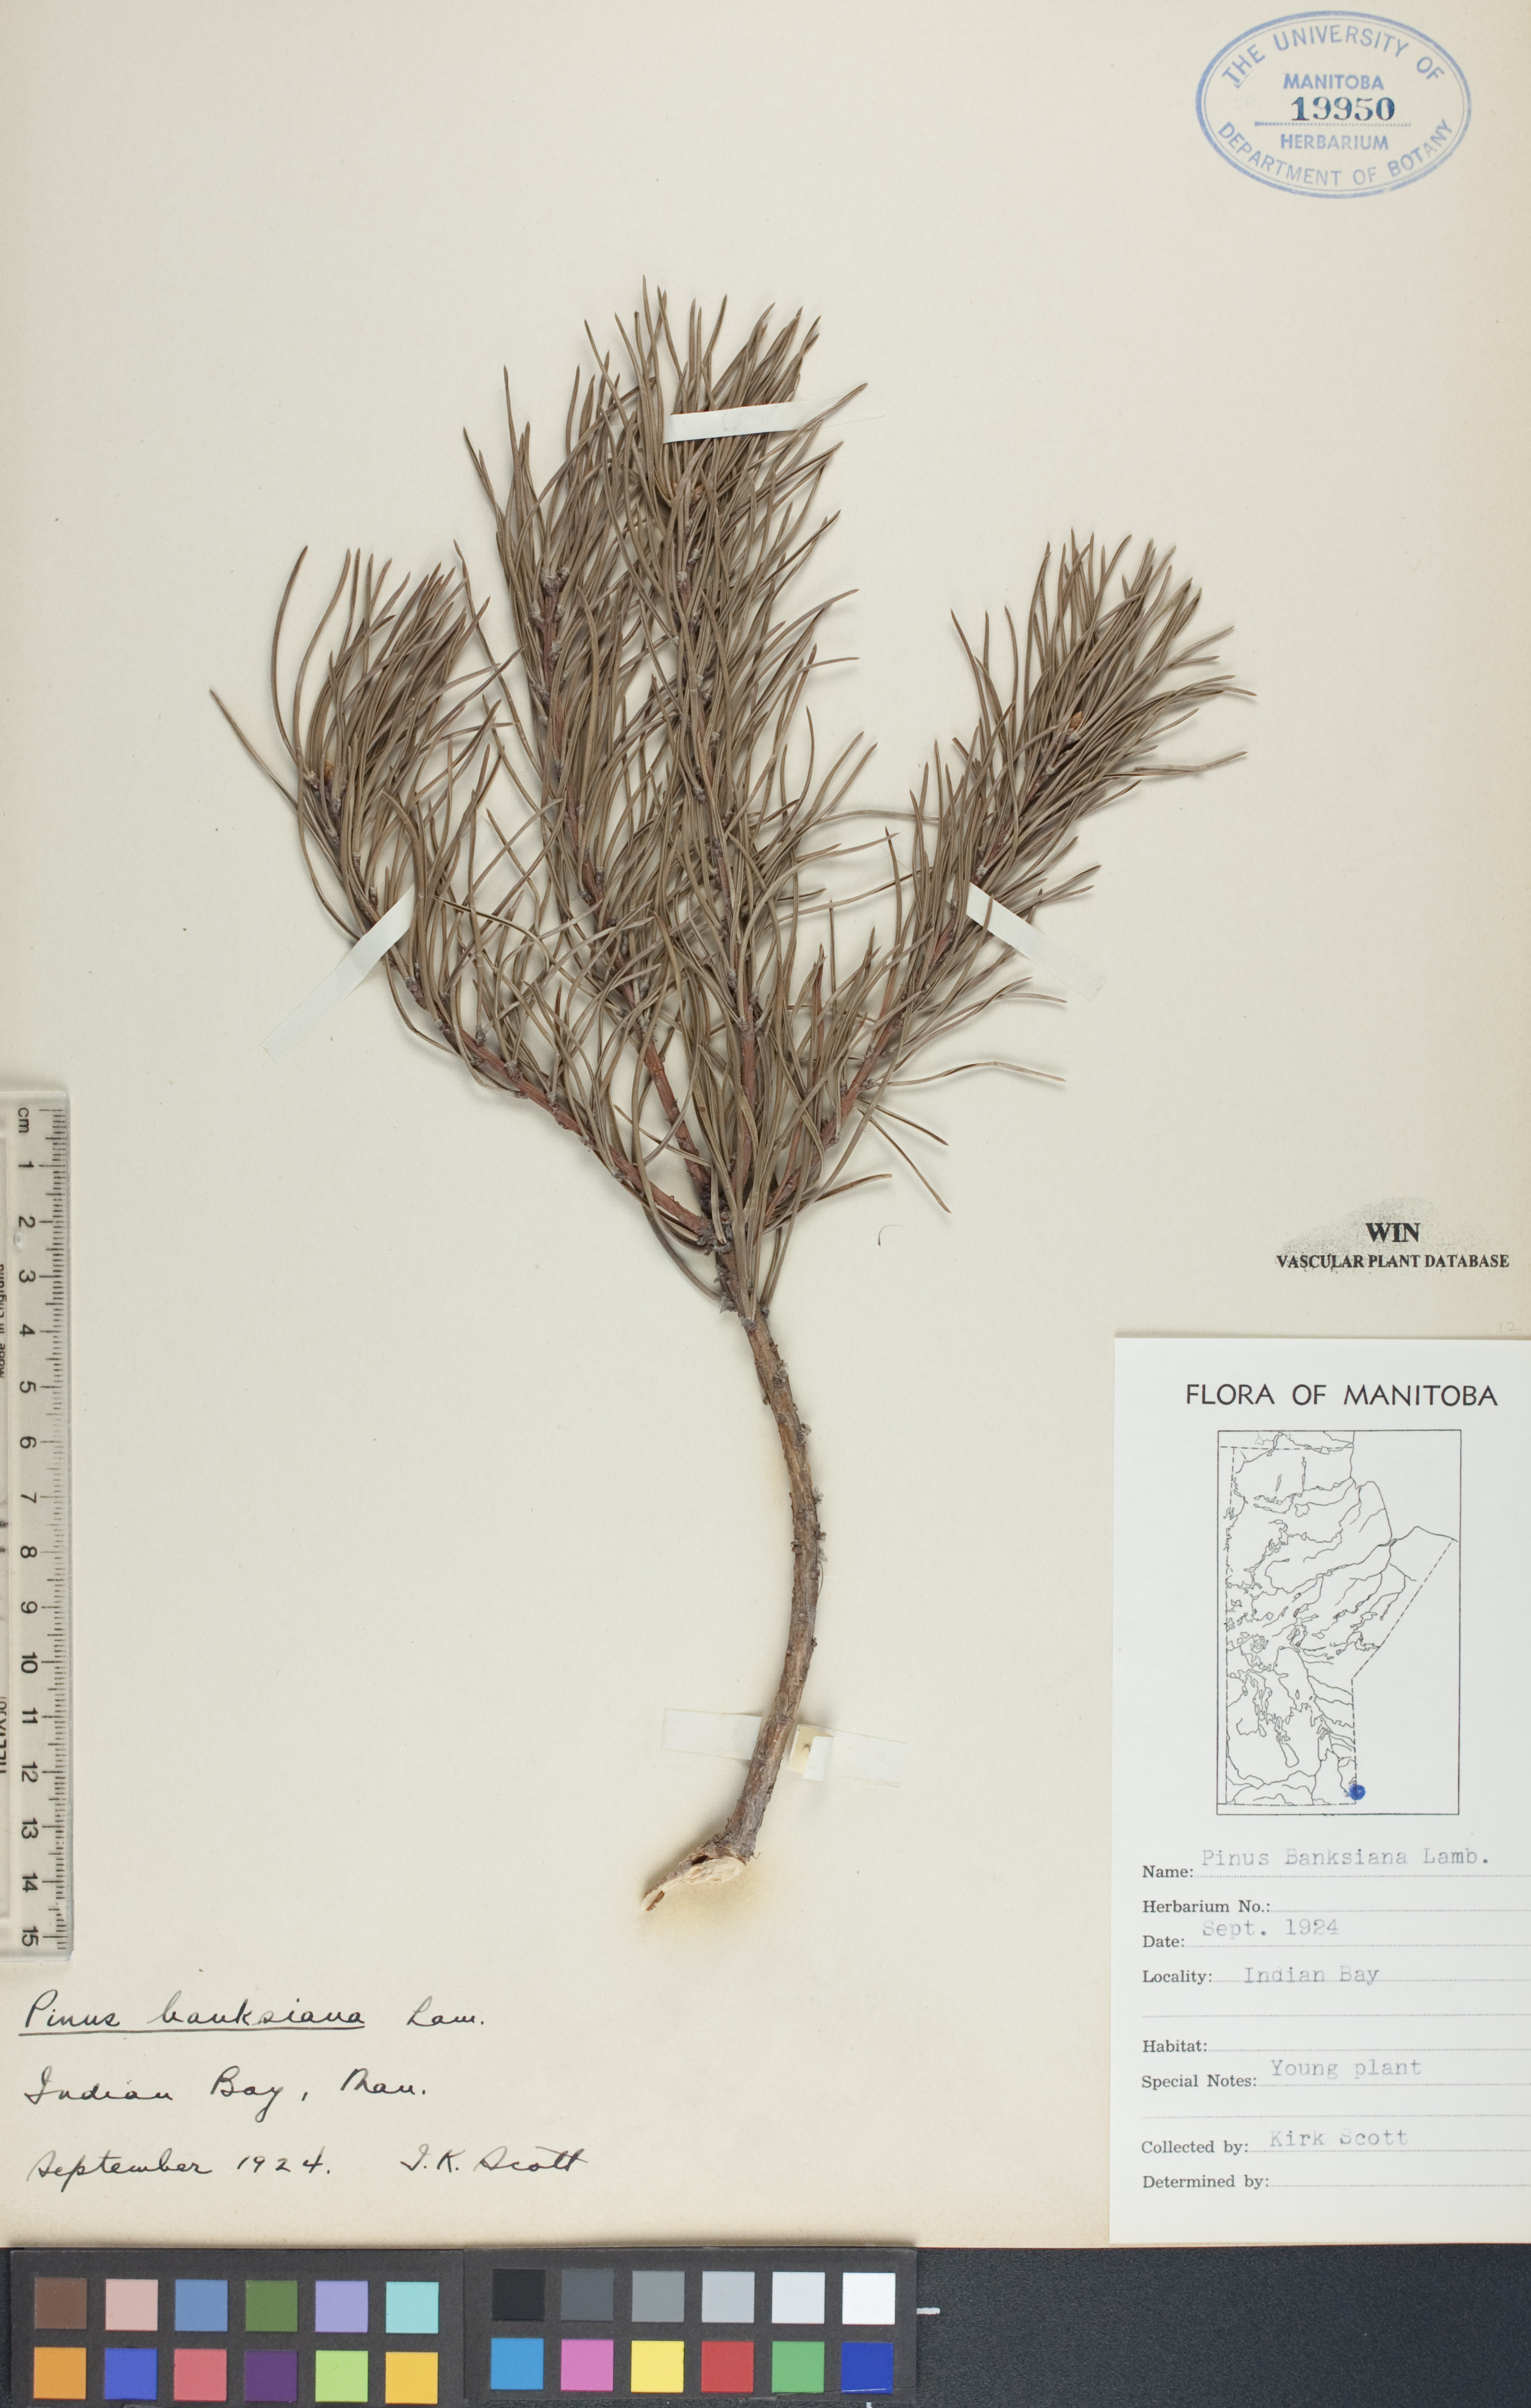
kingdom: Plantae
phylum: Tracheophyta
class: Pinopsida
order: Pinales
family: Pinaceae
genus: Pinus
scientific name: Pinus banksiana
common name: Jack pine
